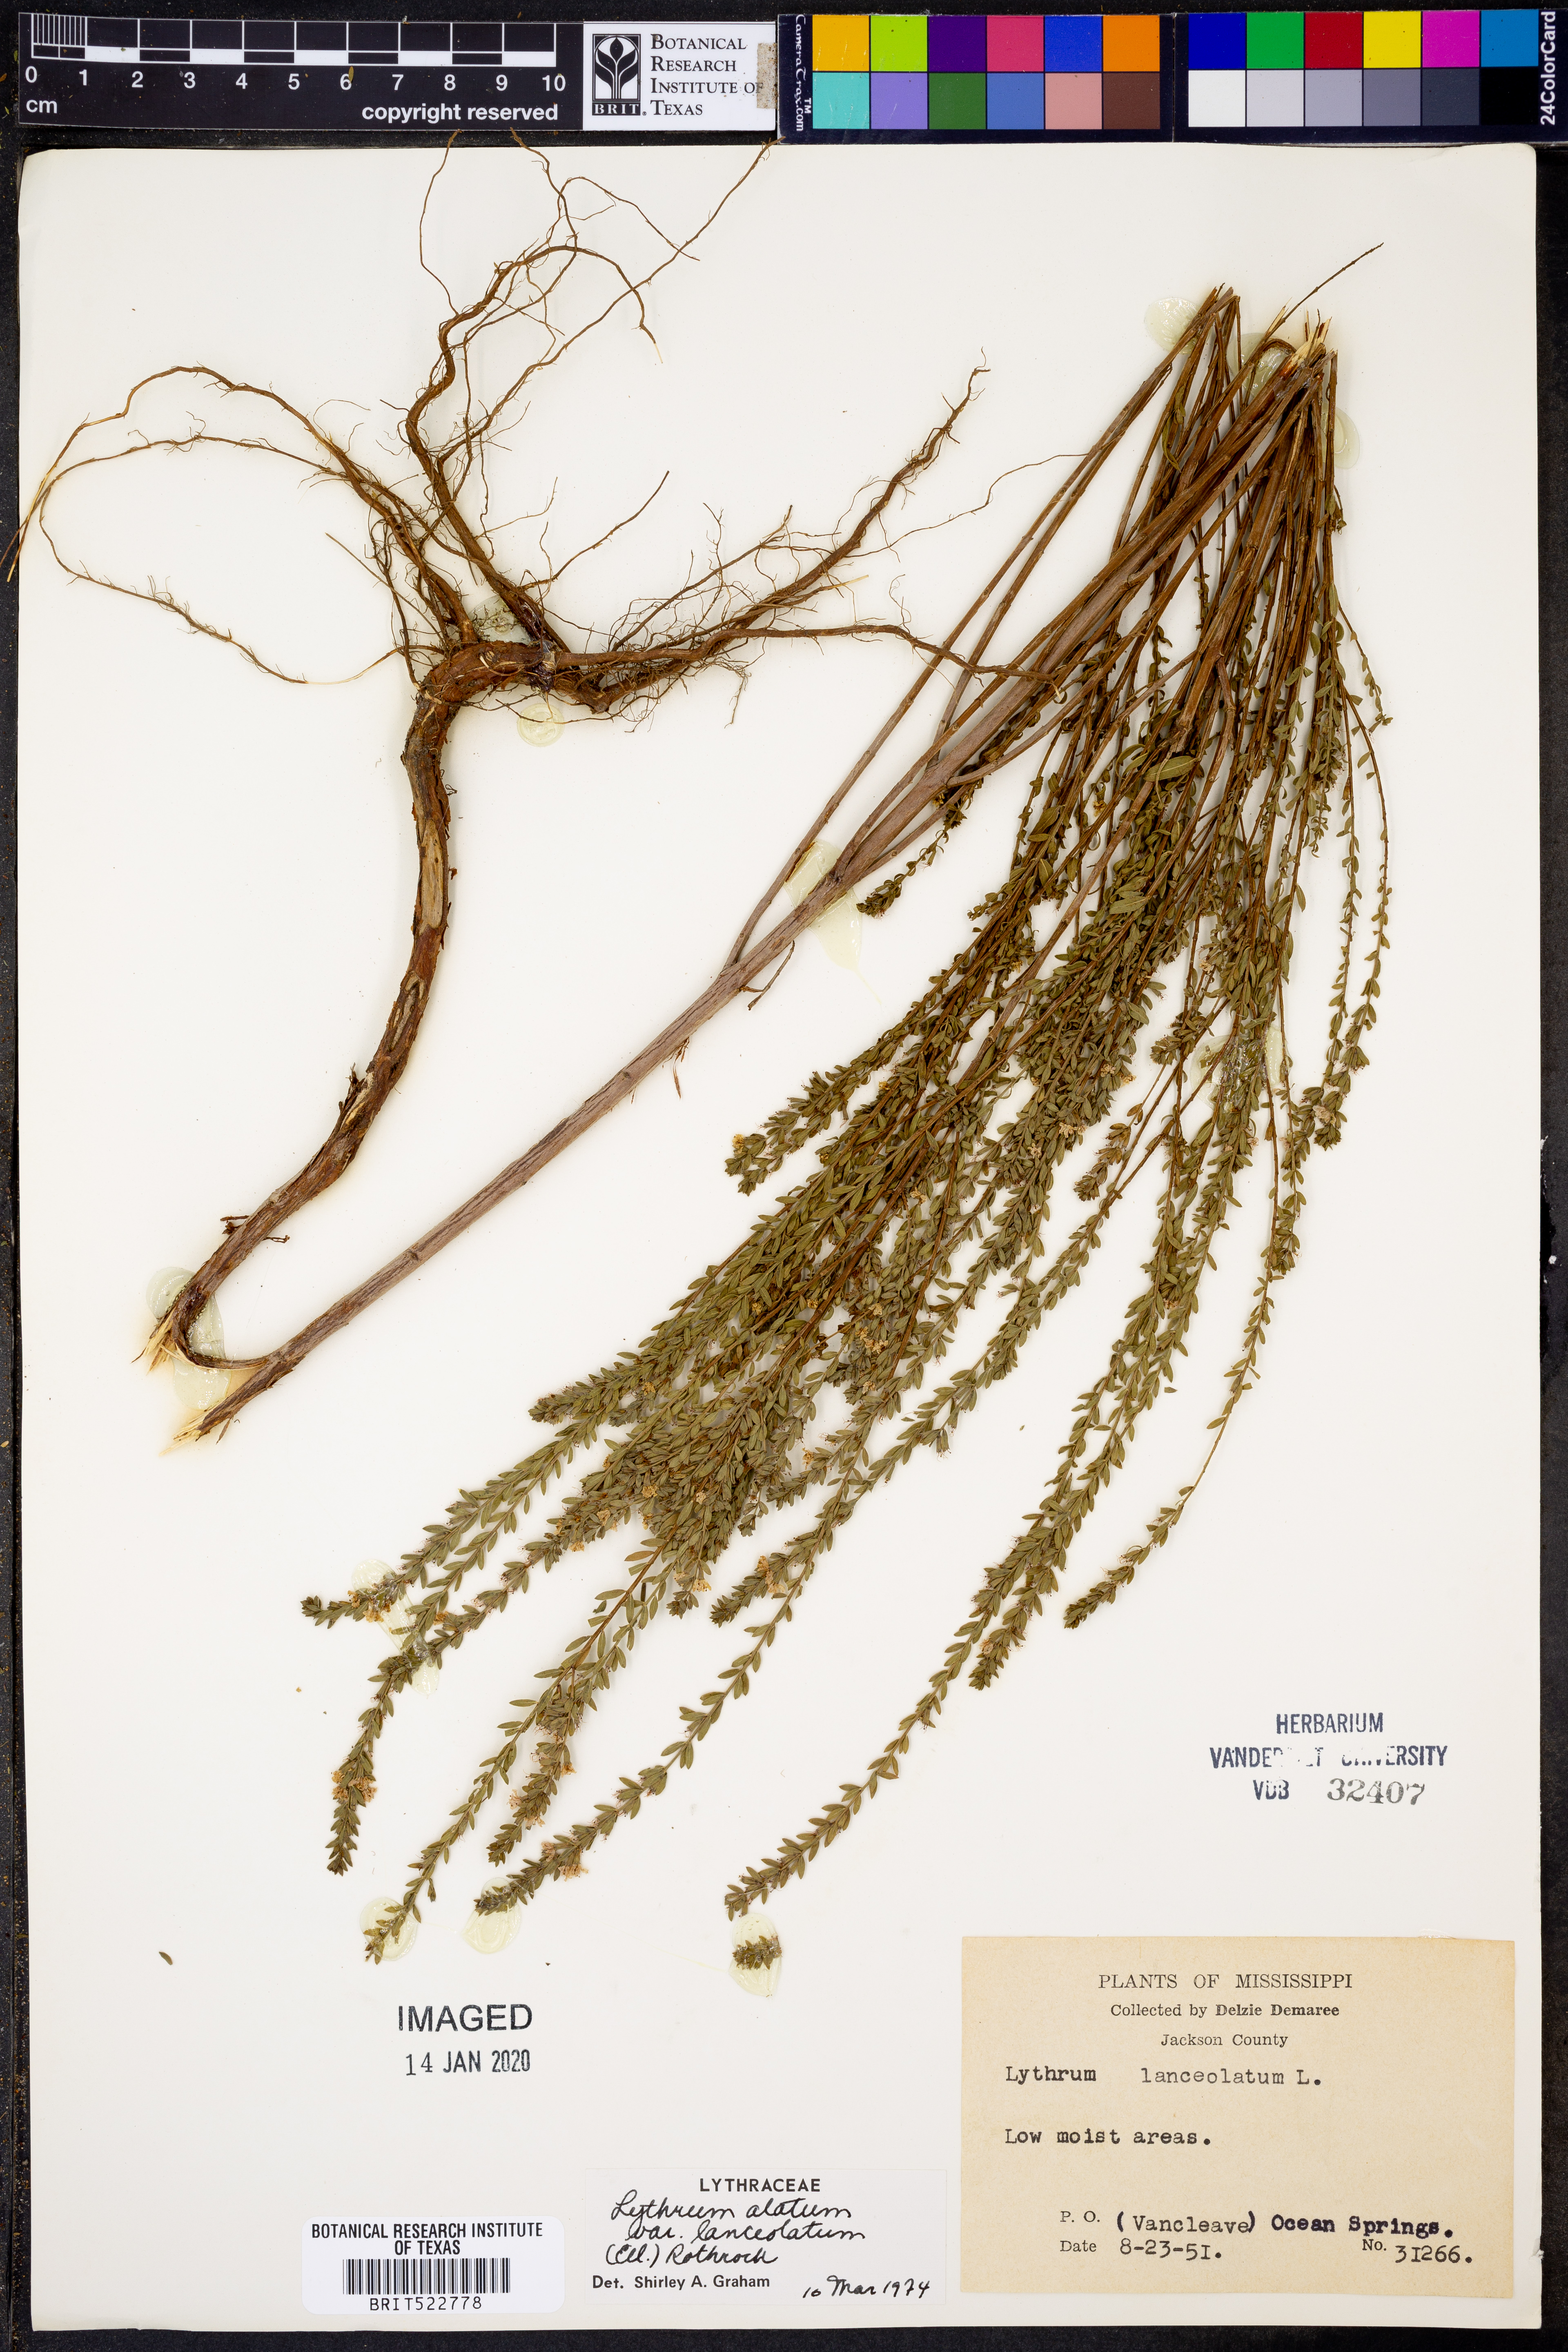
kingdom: Plantae
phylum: Tracheophyta
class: Magnoliopsida
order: Myrtales
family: Lythraceae
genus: Lythrum
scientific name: Lythrum alatum
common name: Winged loosestrife
